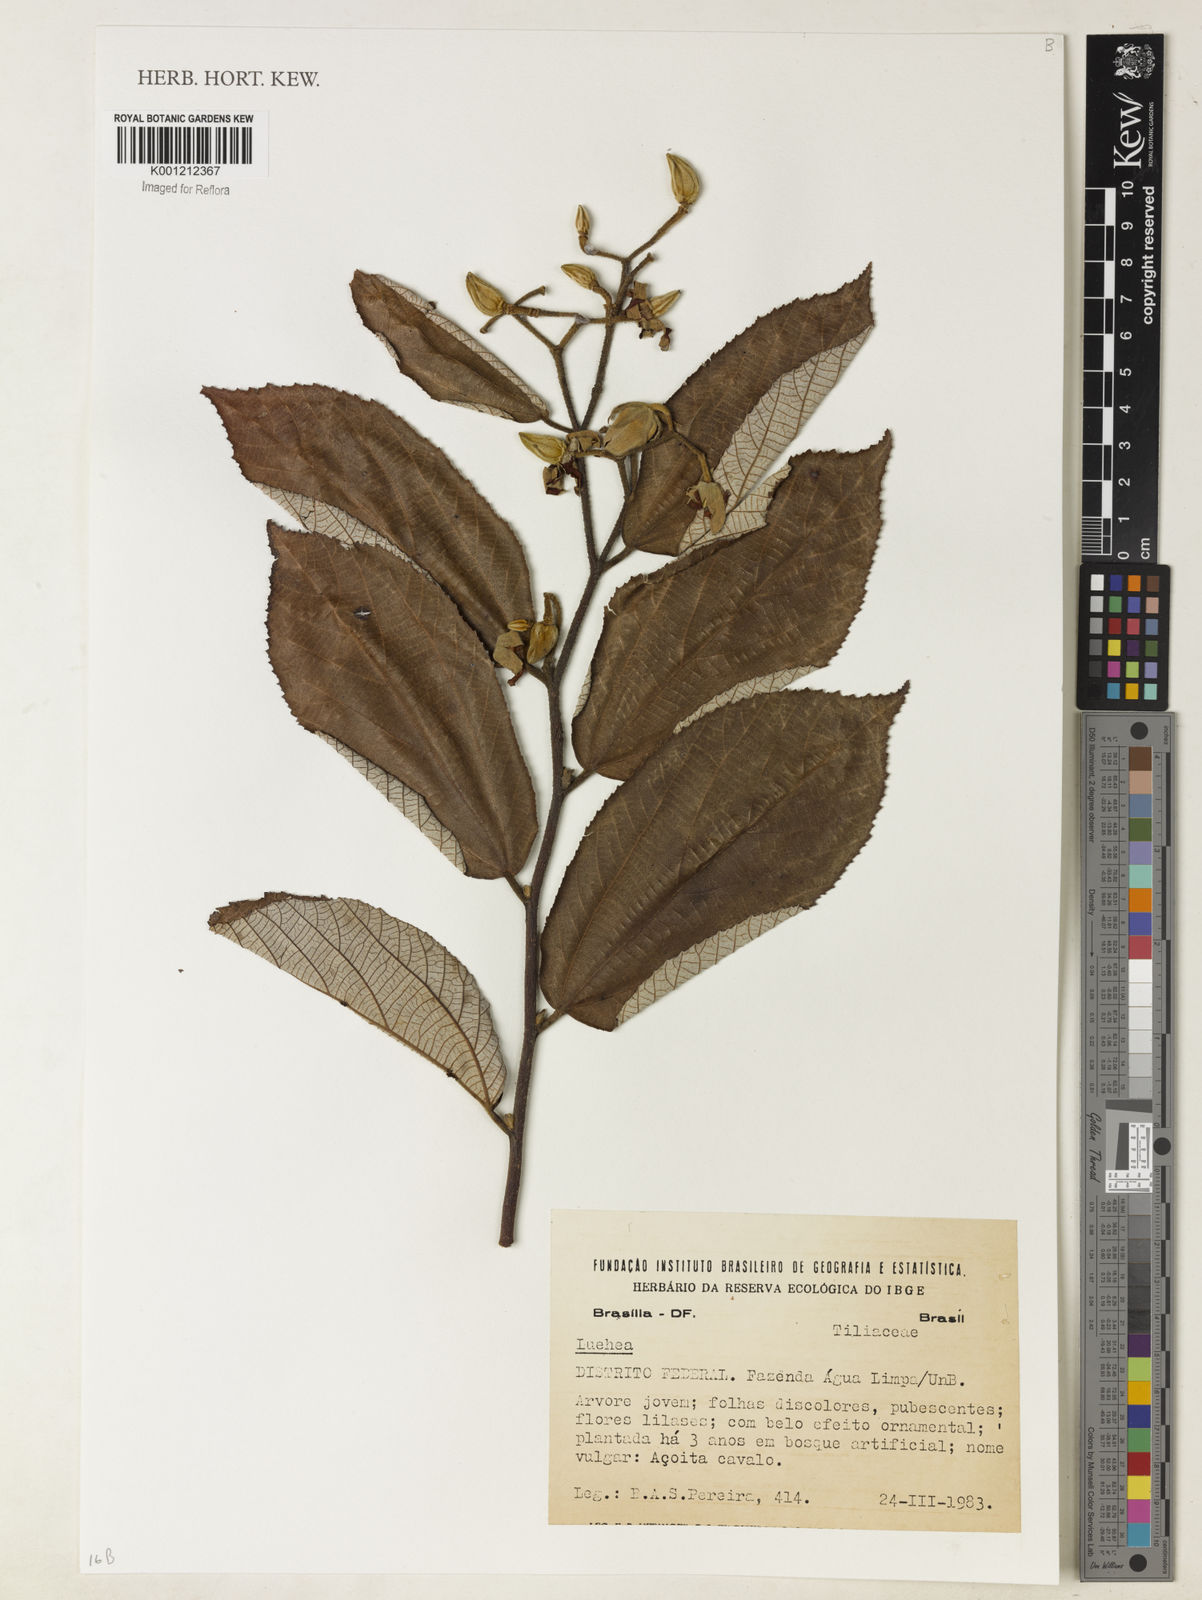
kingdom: Plantae
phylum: Tracheophyta
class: Magnoliopsida
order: Malvales
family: Malvaceae
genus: Luehea
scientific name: Luehea
